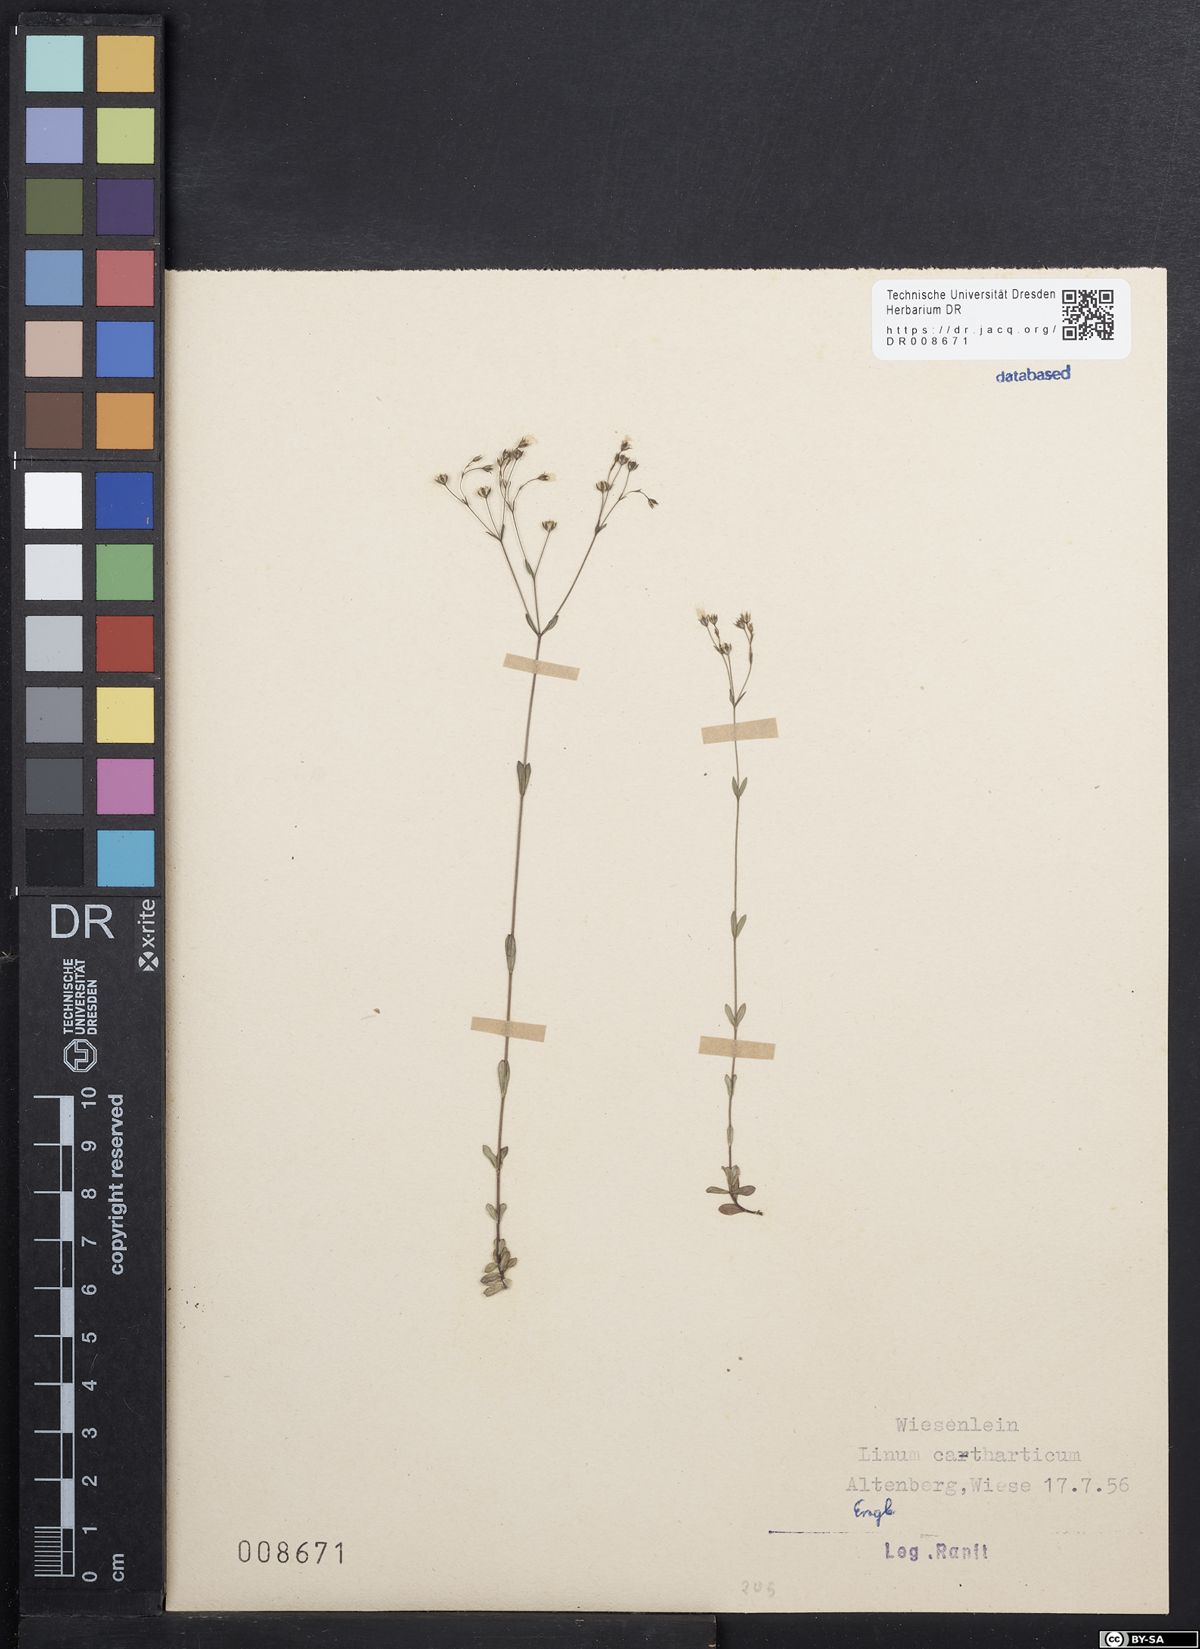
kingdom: Plantae
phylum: Tracheophyta
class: Magnoliopsida
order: Malpighiales
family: Linaceae
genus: Linum
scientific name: Linum catharticum
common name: Fairy flax
